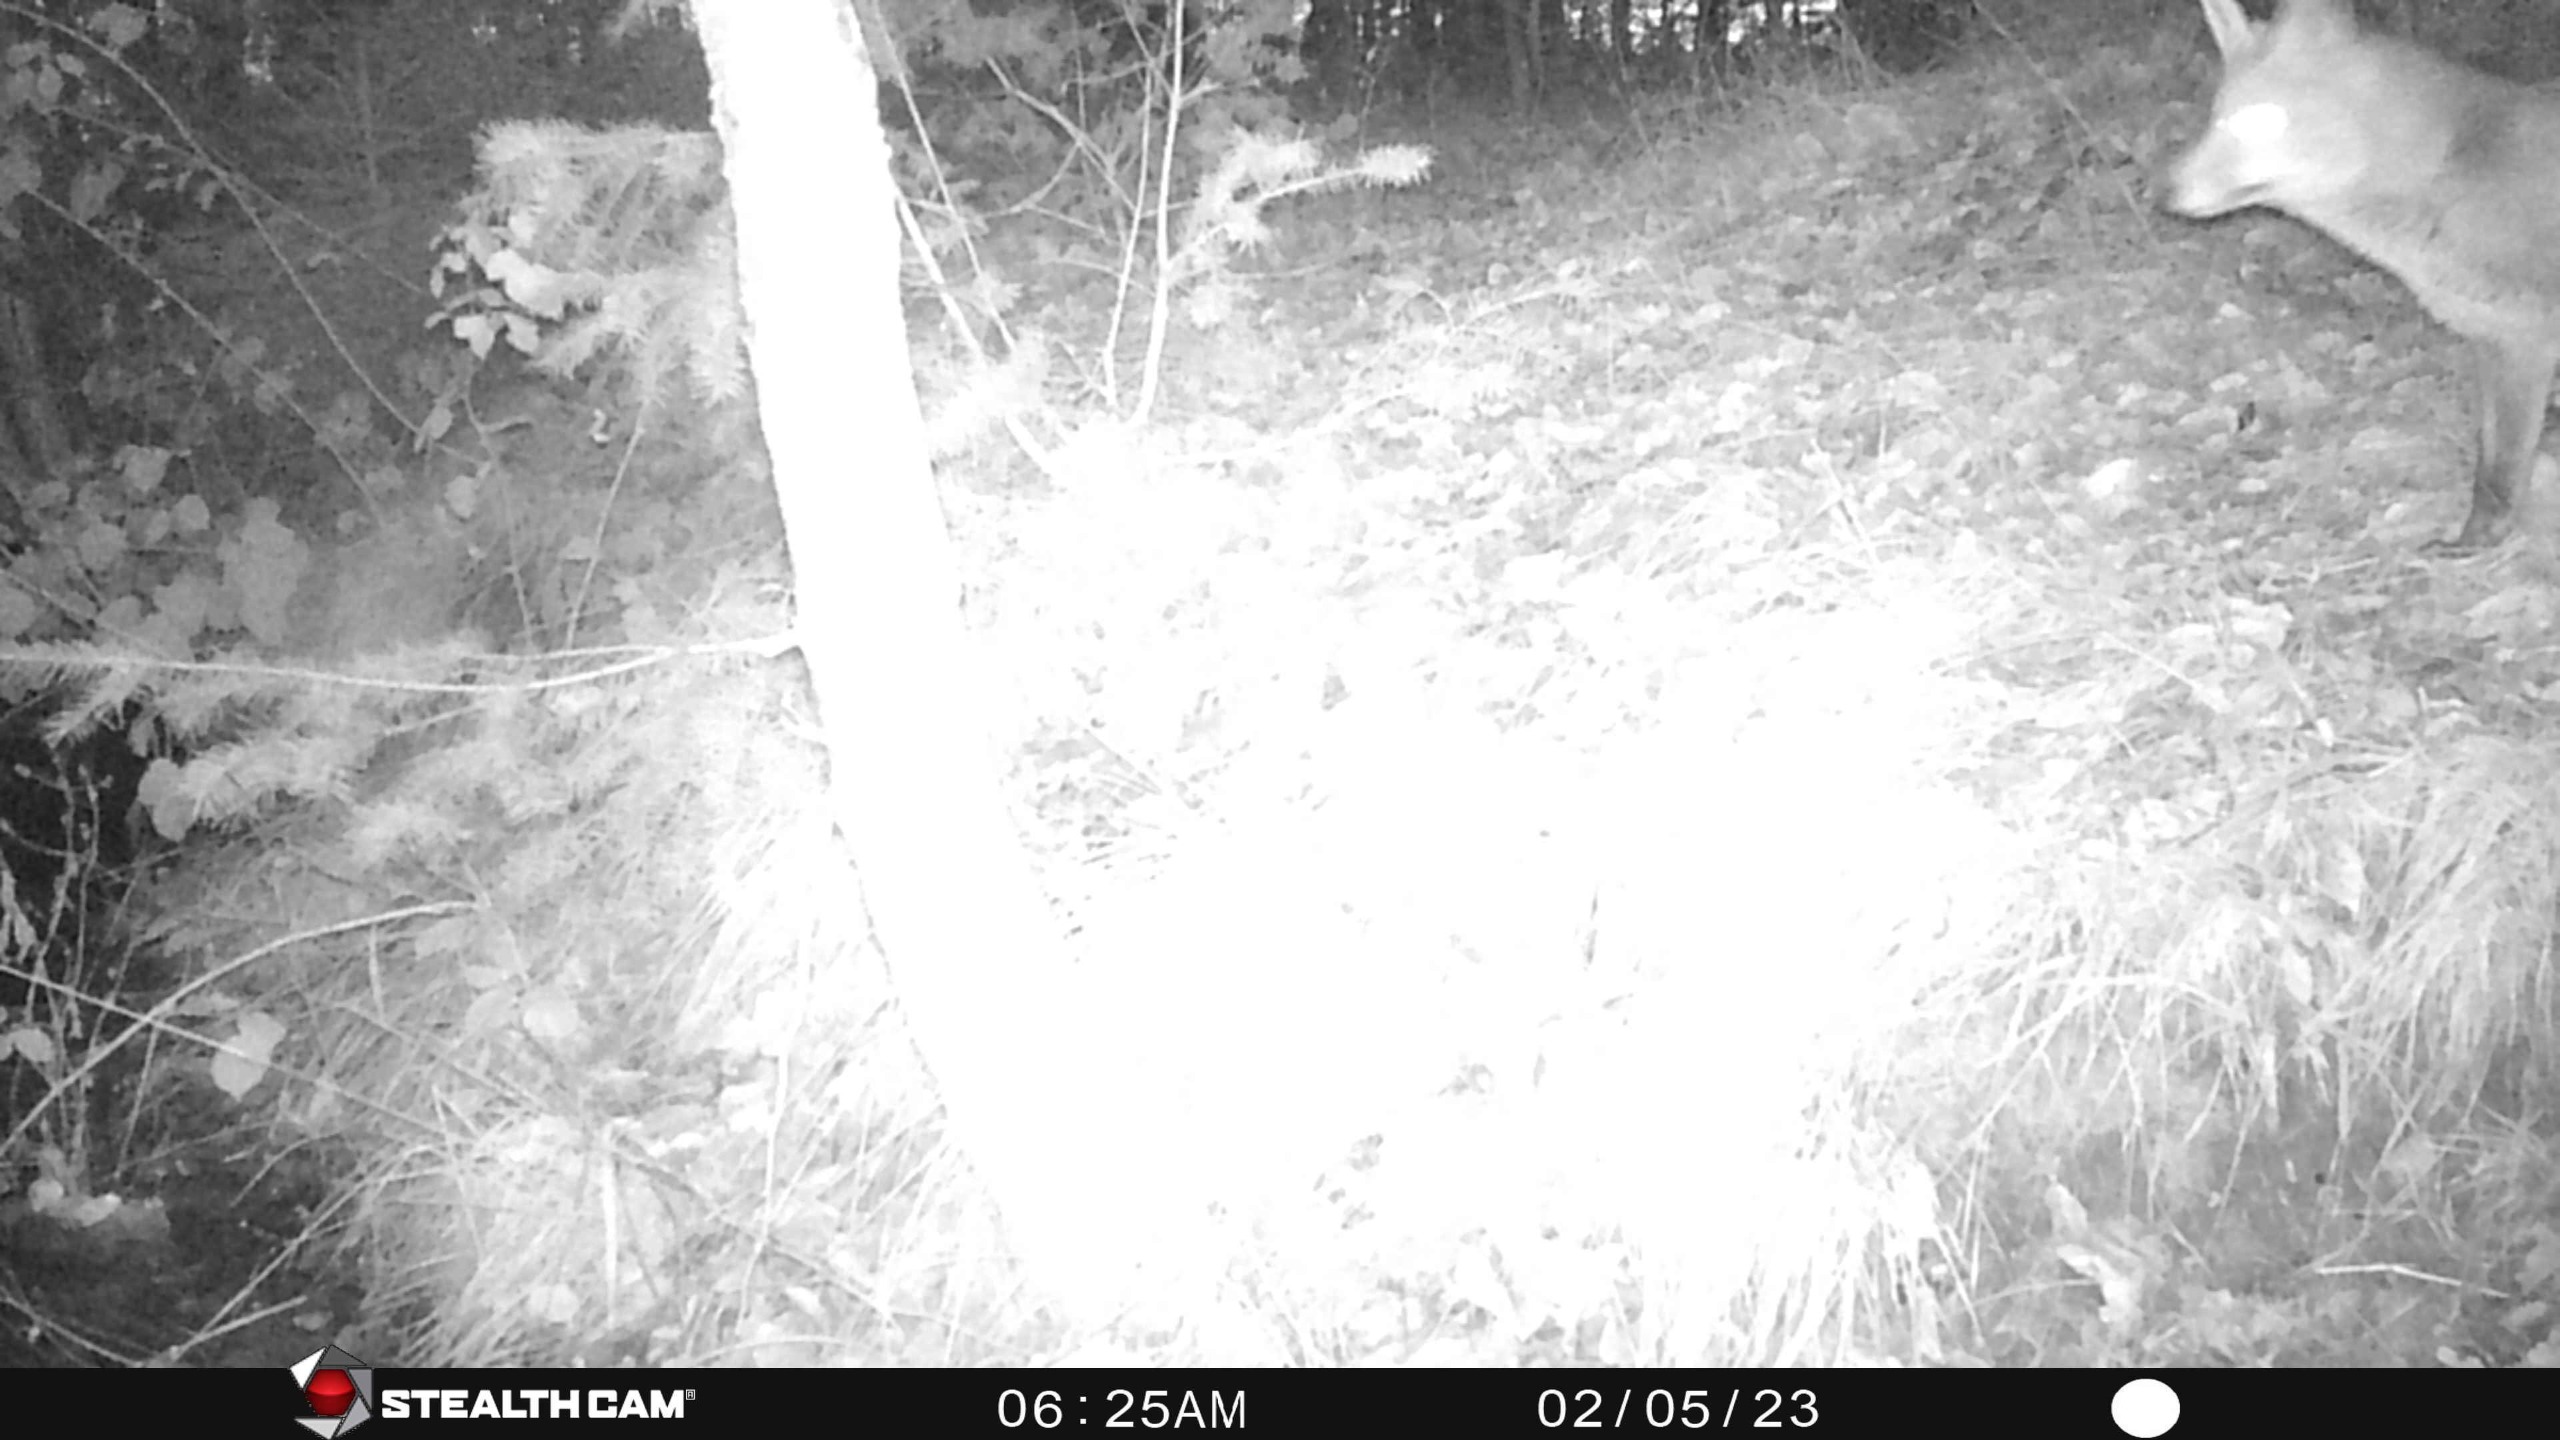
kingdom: Animalia
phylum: Chordata
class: Mammalia
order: Carnivora
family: Canidae
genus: Vulpes
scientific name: Vulpes vulpes
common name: Ræv
